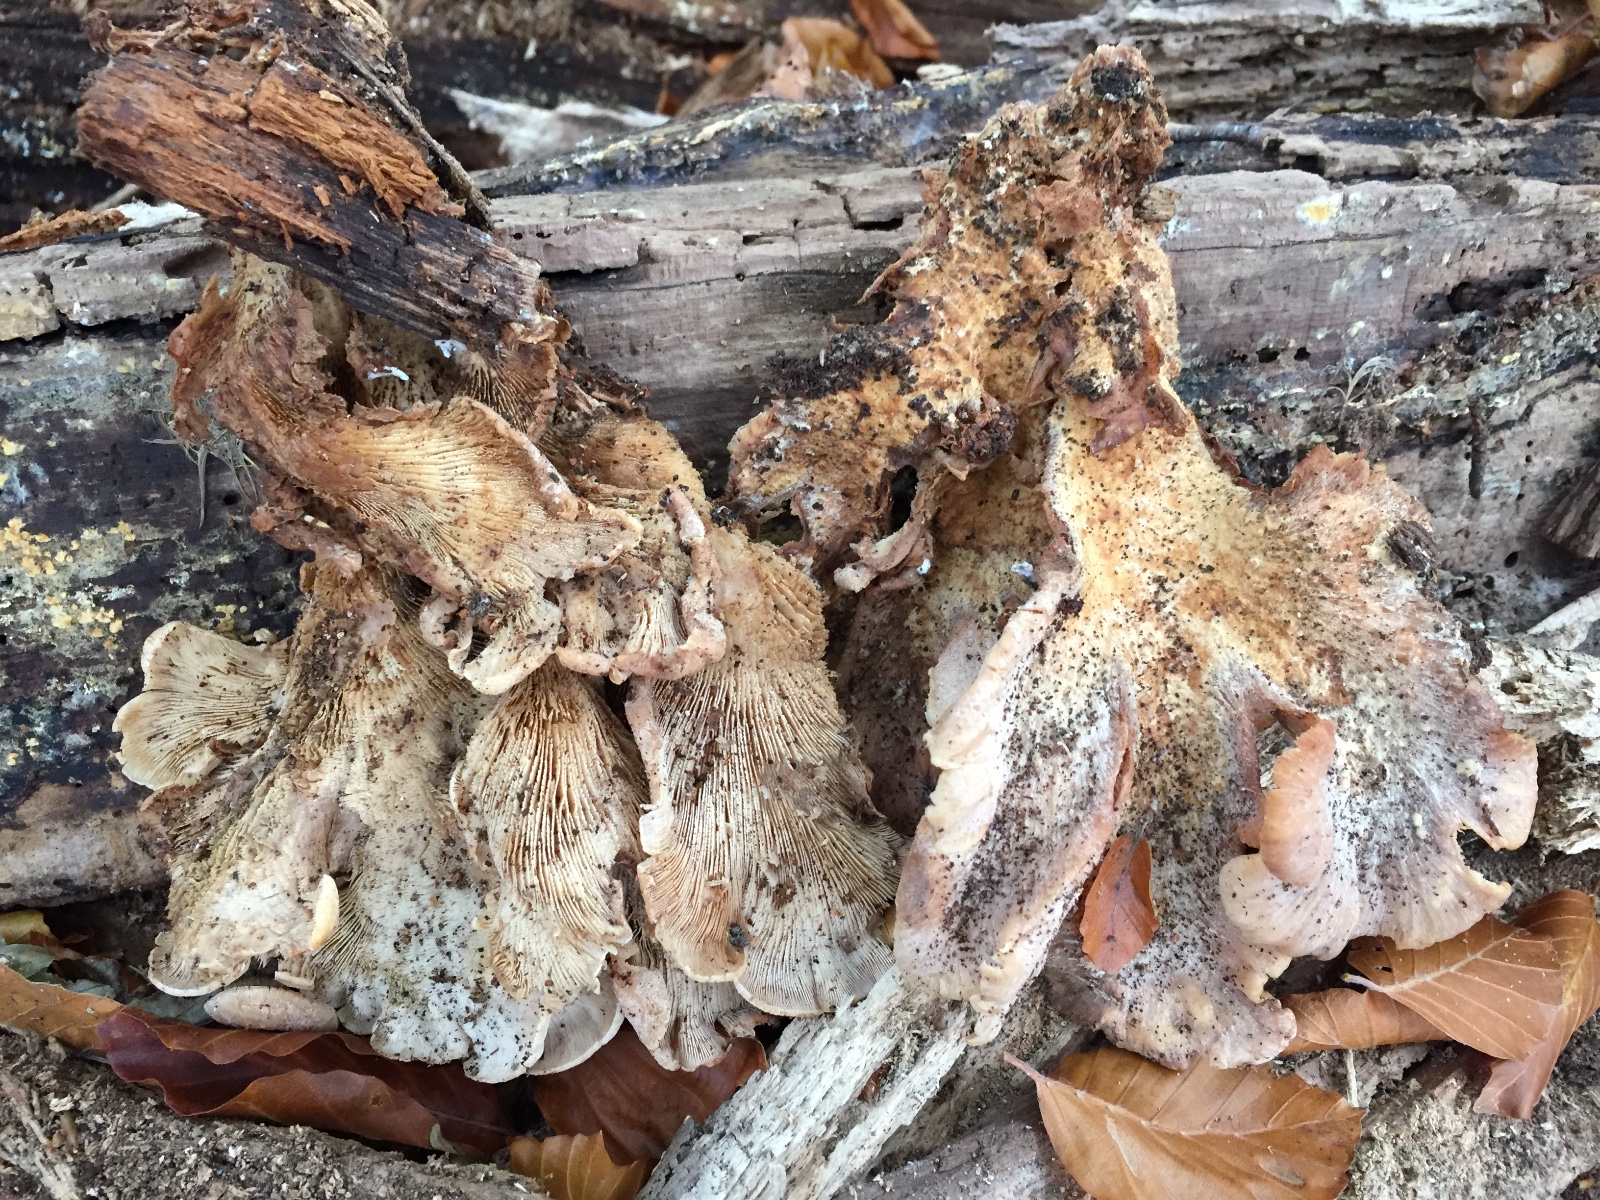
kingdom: Fungi
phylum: Basidiomycota
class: Agaricomycetes
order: Russulales
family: Auriscalpiaceae
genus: Lentinellus
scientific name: Lentinellus ursinus
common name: børstehåret savbladhat
